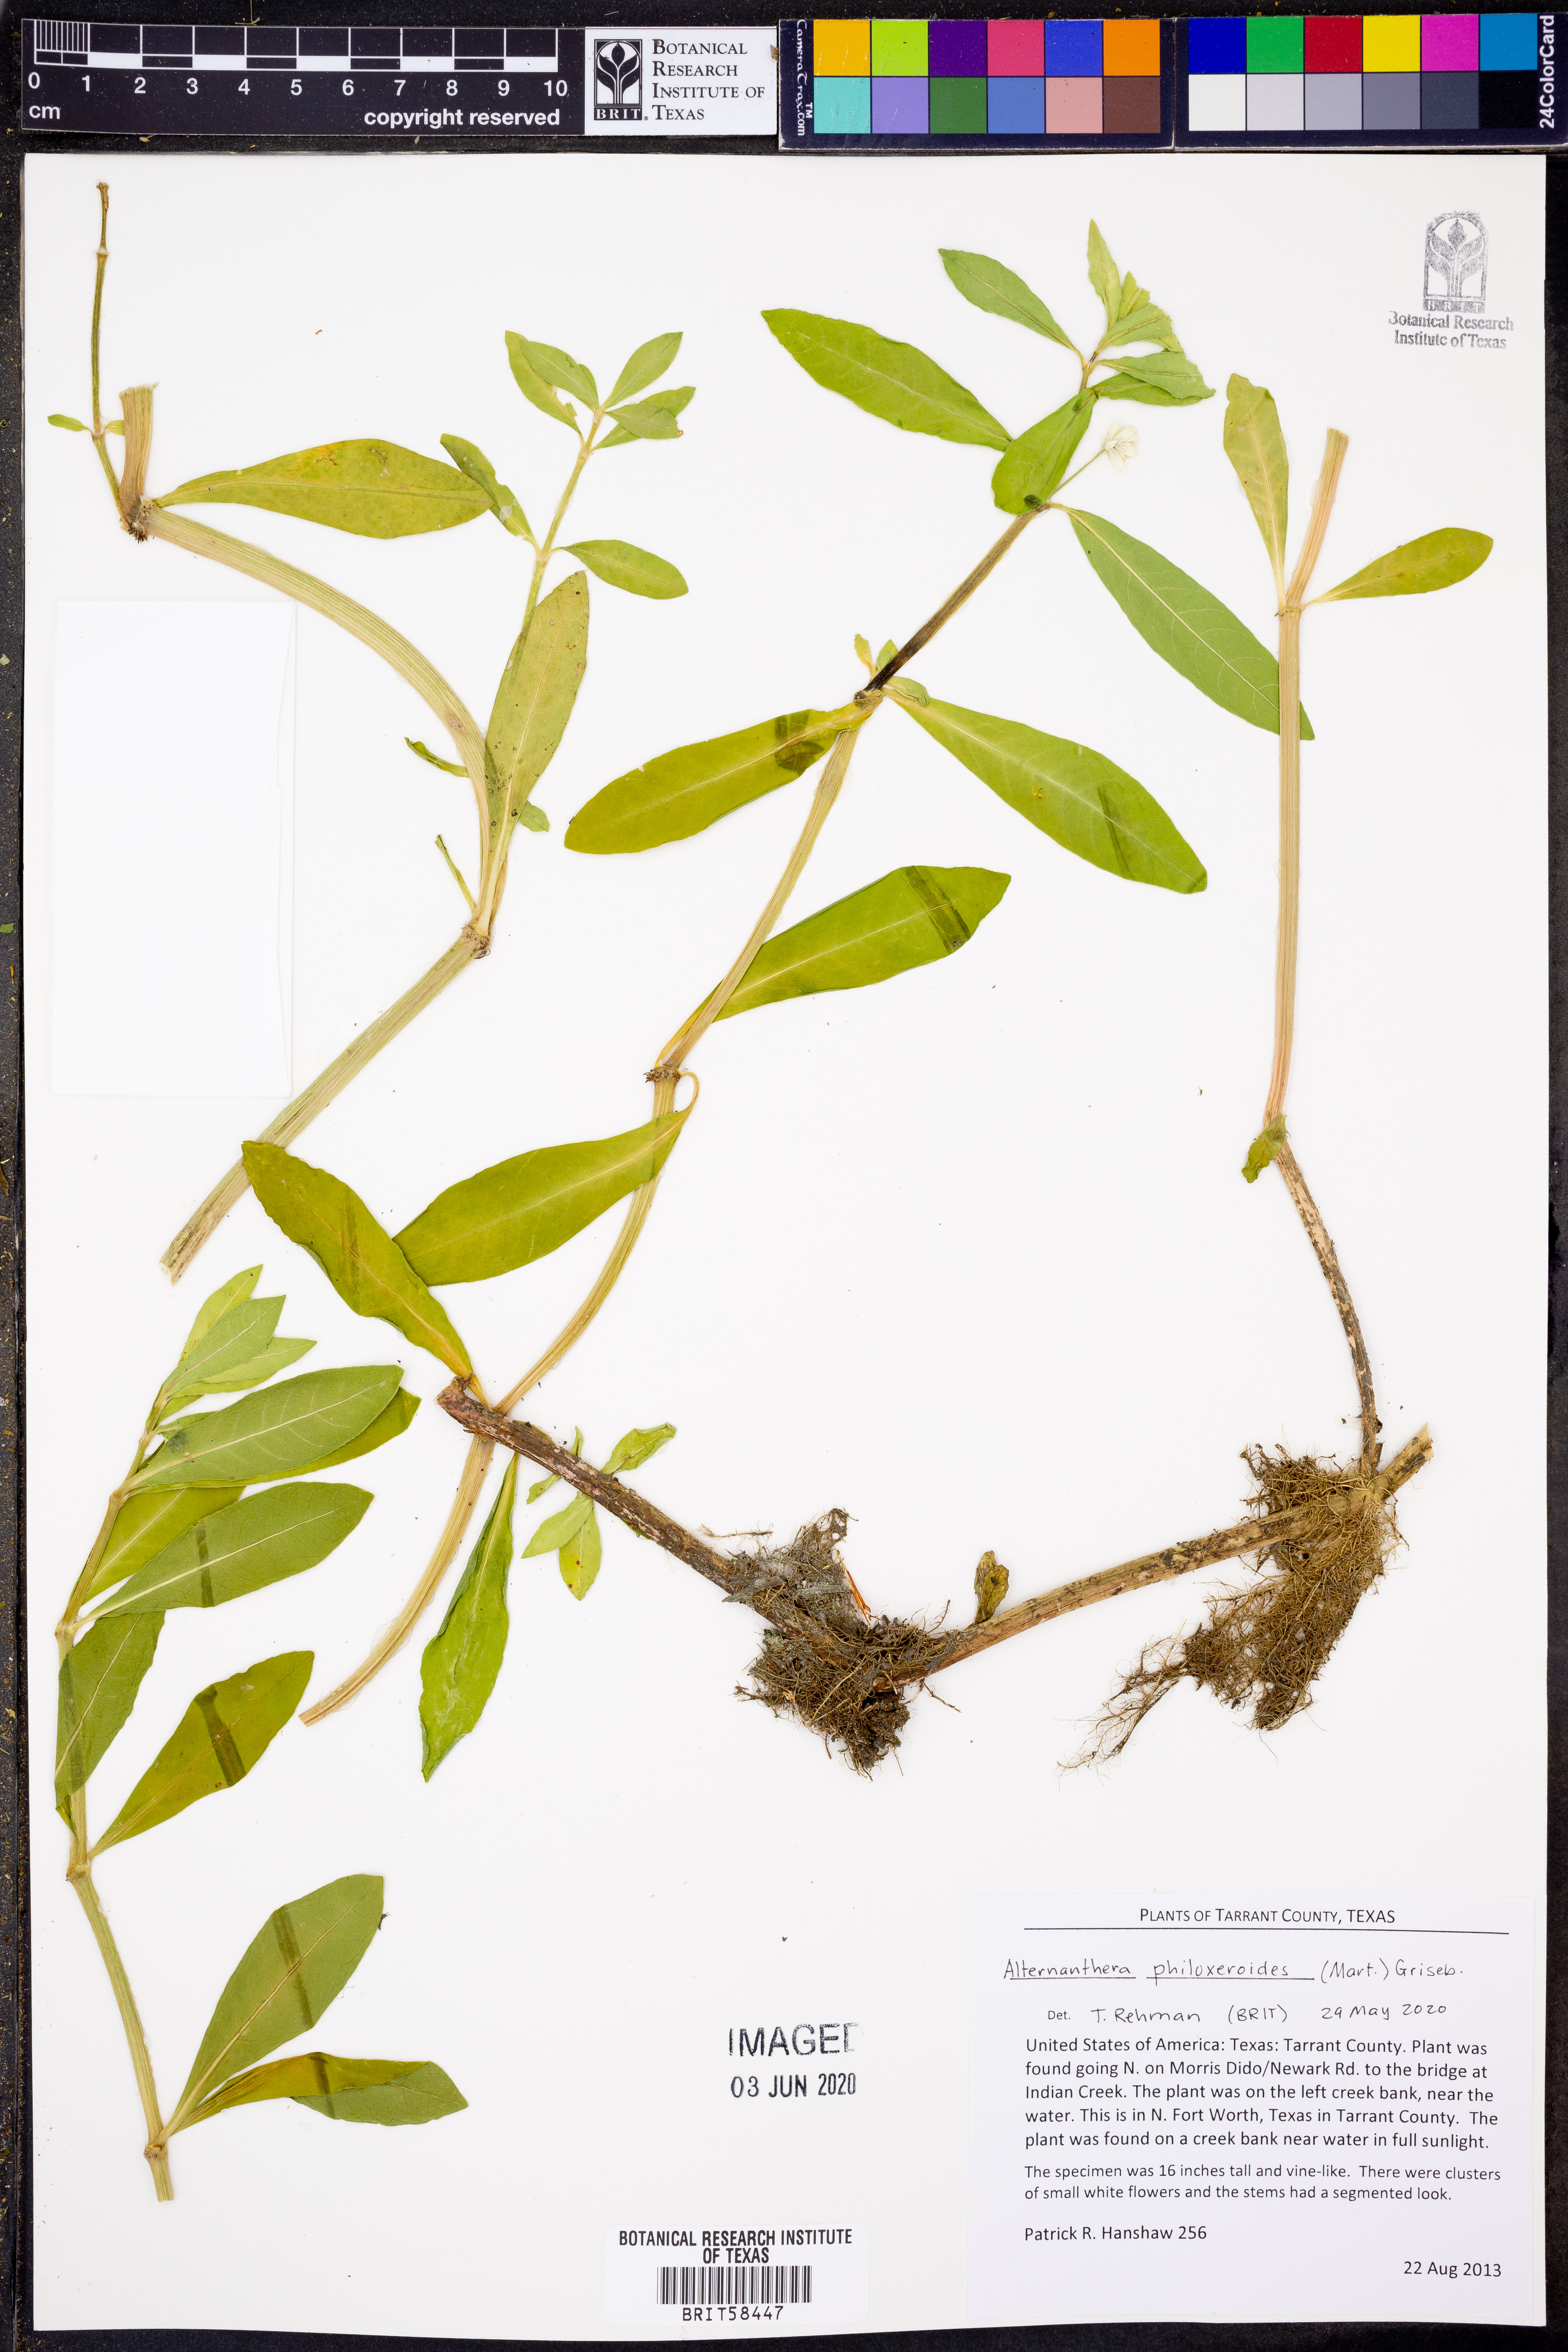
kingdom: Plantae
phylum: Tracheophyta
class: Magnoliopsida
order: Caryophyllales
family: Amaranthaceae
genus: Alternanthera
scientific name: Alternanthera philoxeroides
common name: Alligatorweed
